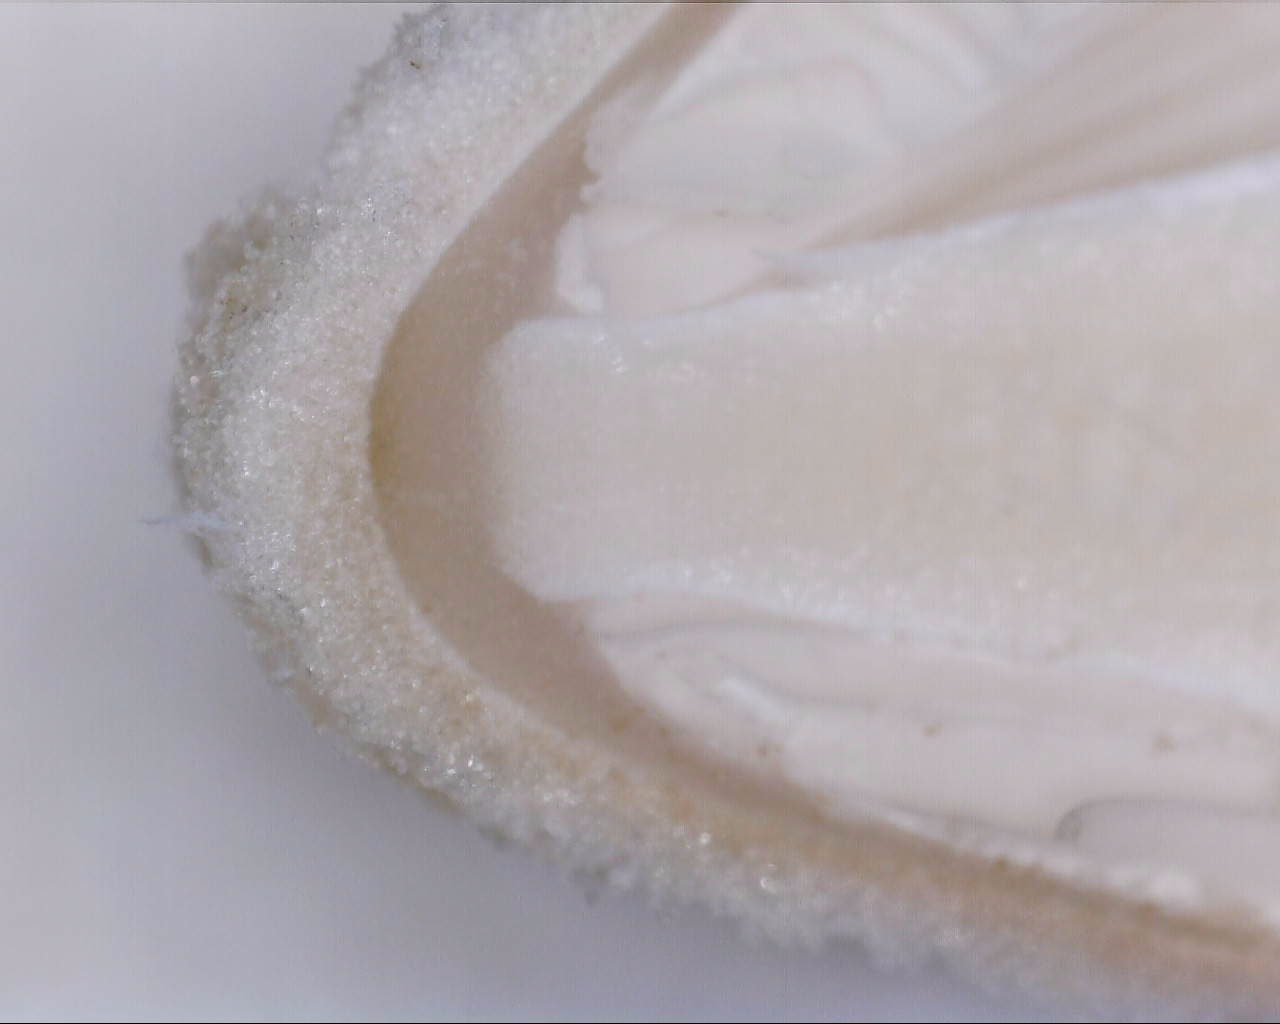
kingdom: Fungi
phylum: Basidiomycota
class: Agaricomycetes
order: Agaricales
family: Psathyrellaceae
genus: Coprinopsis
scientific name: Coprinopsis
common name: blækhat
